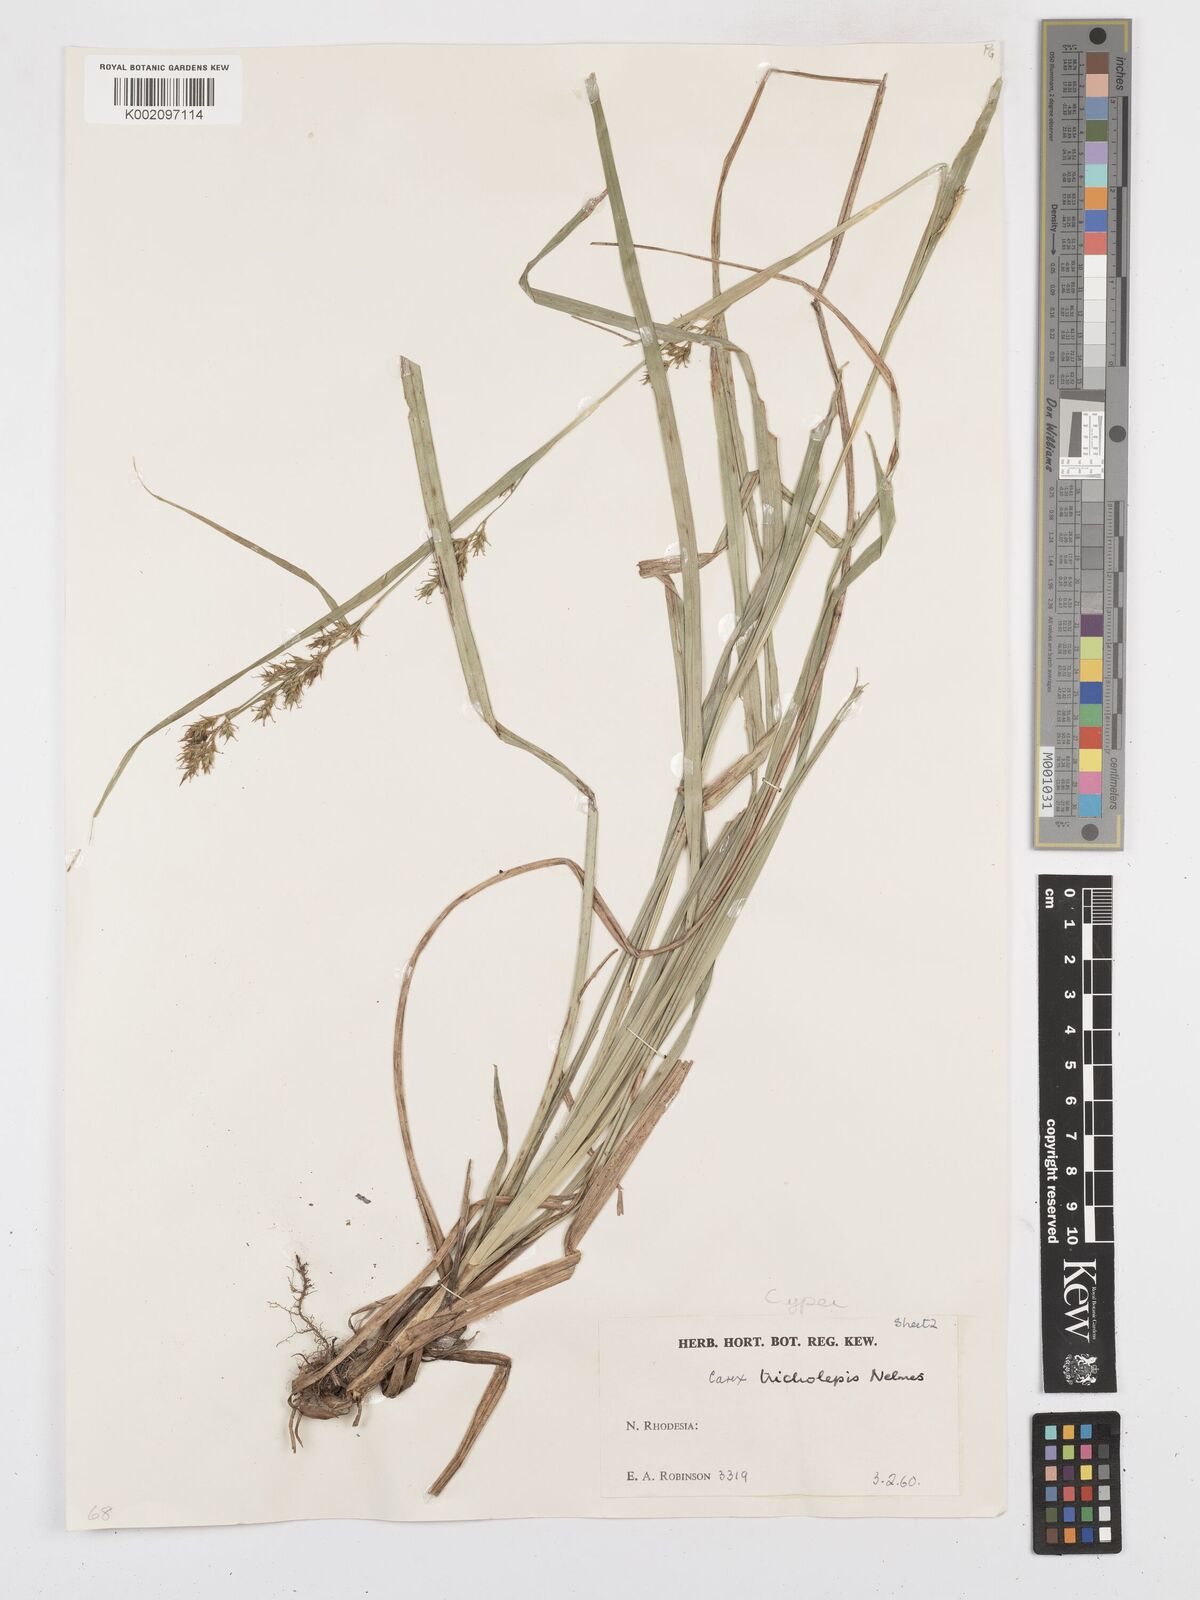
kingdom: Plantae
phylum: Tracheophyta
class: Liliopsida
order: Poales
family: Cyperaceae
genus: Carex
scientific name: Carex tricholepis
